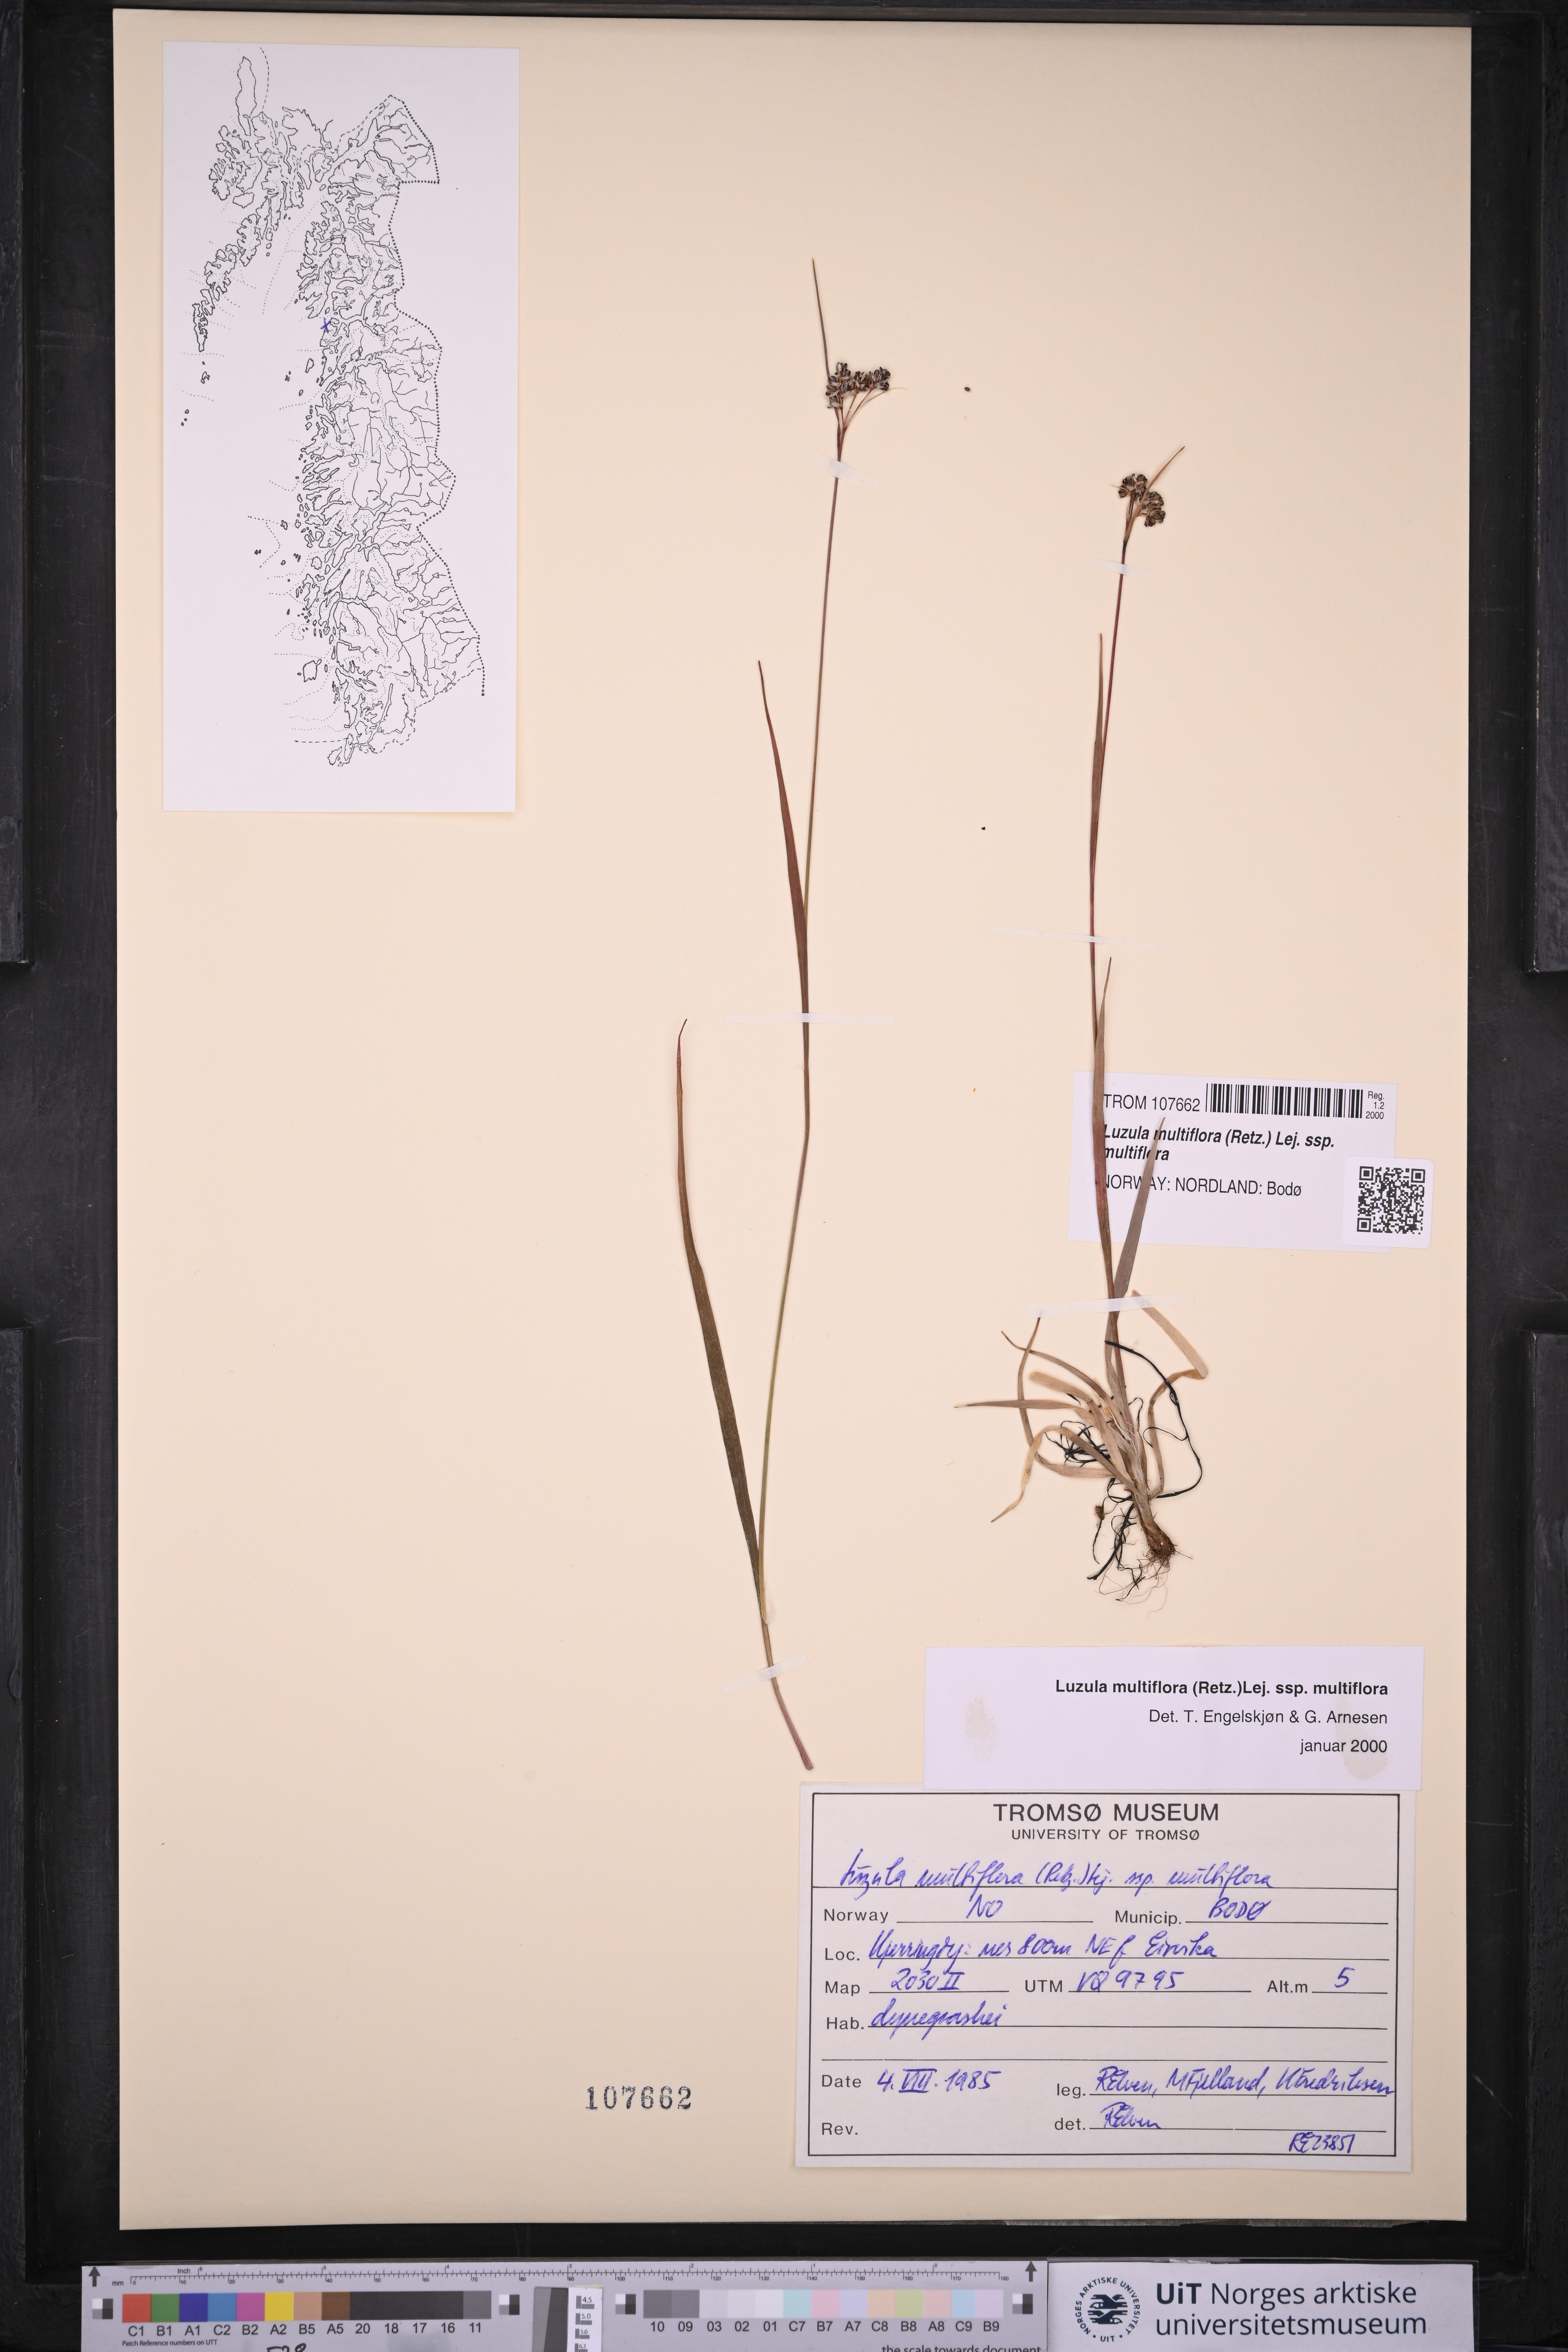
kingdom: Plantae
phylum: Tracheophyta
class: Liliopsida
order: Poales
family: Juncaceae
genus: Luzula
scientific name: Luzula multiflora
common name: Heath wood-rush
